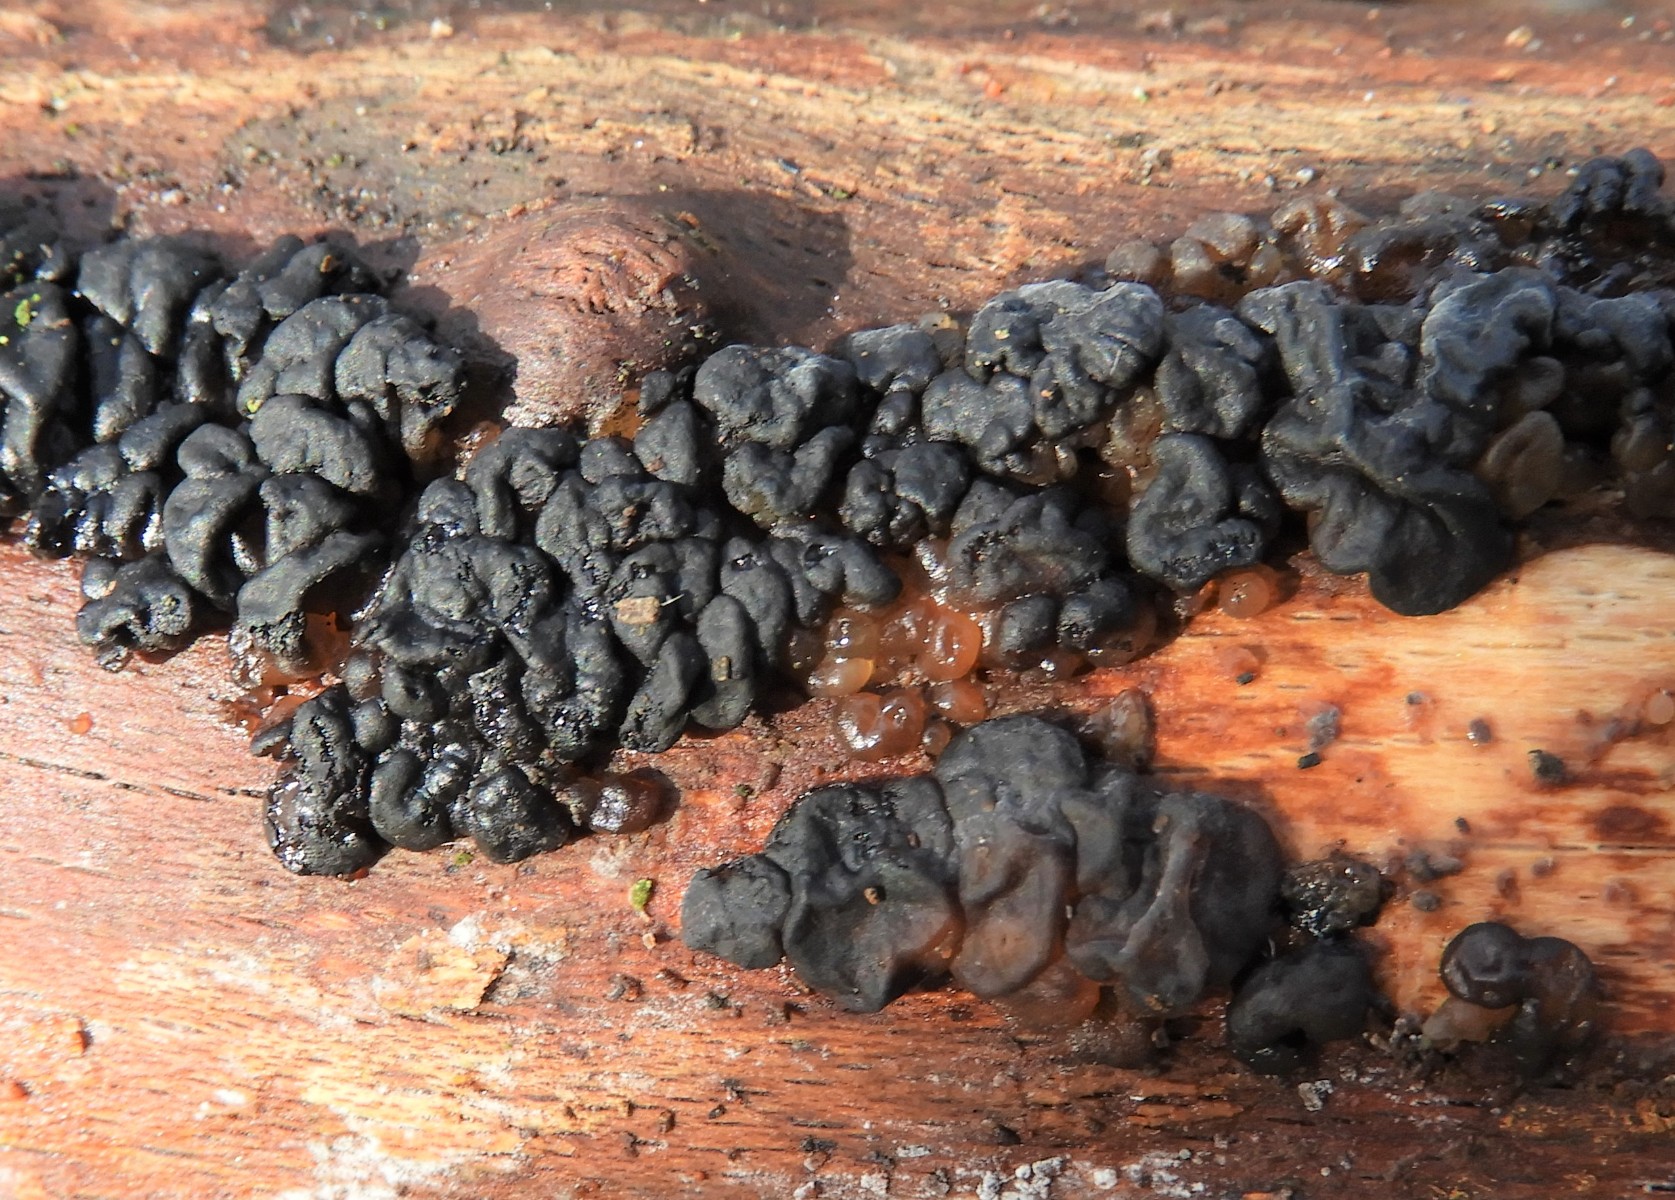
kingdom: Fungi
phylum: Basidiomycota
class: Agaricomycetes
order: Auriculariales
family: Auriculariaceae
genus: Exidia
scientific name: Exidia nigricans
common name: almindelig bævretop
